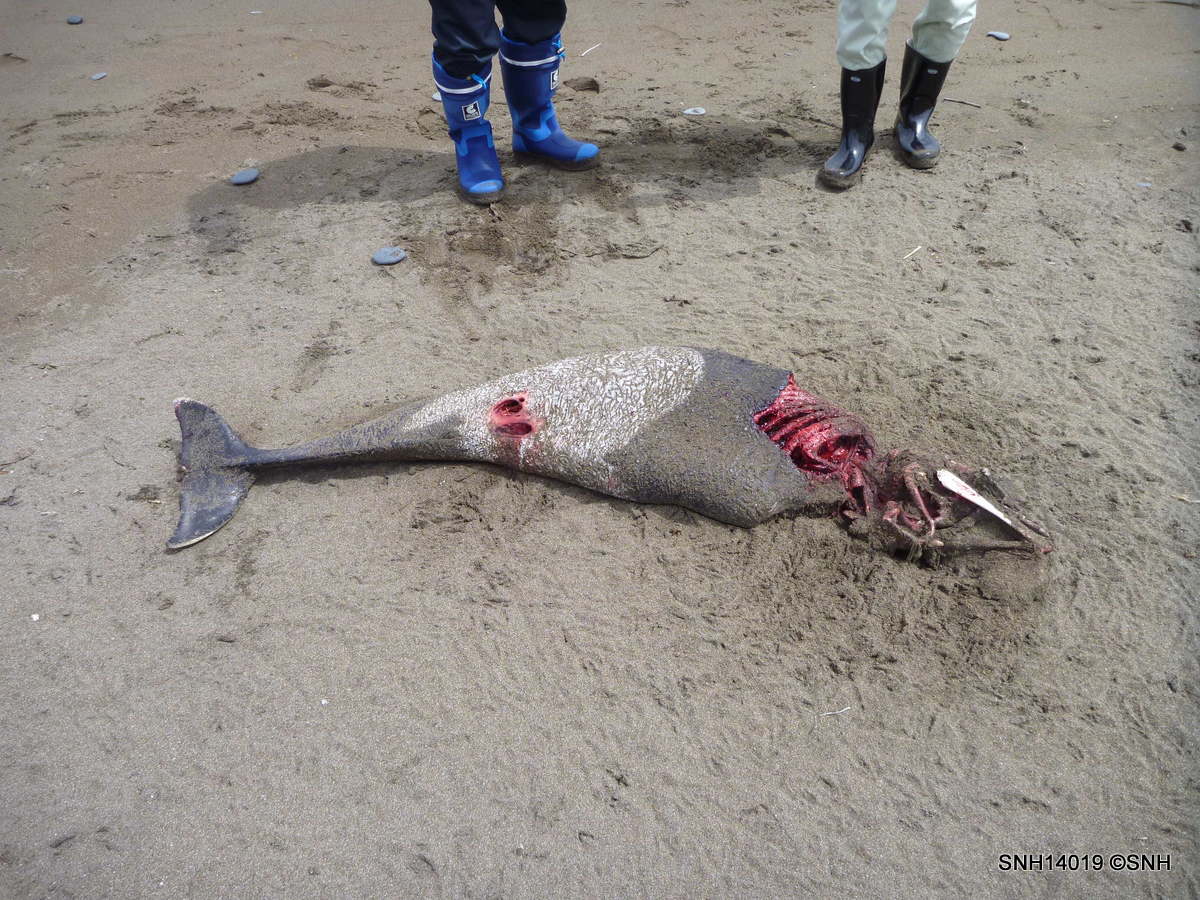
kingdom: Animalia
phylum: Chordata
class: Mammalia
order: Cetacea
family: Phocoenidae
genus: Phocoenoides
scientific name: Phocoenoides dalli
